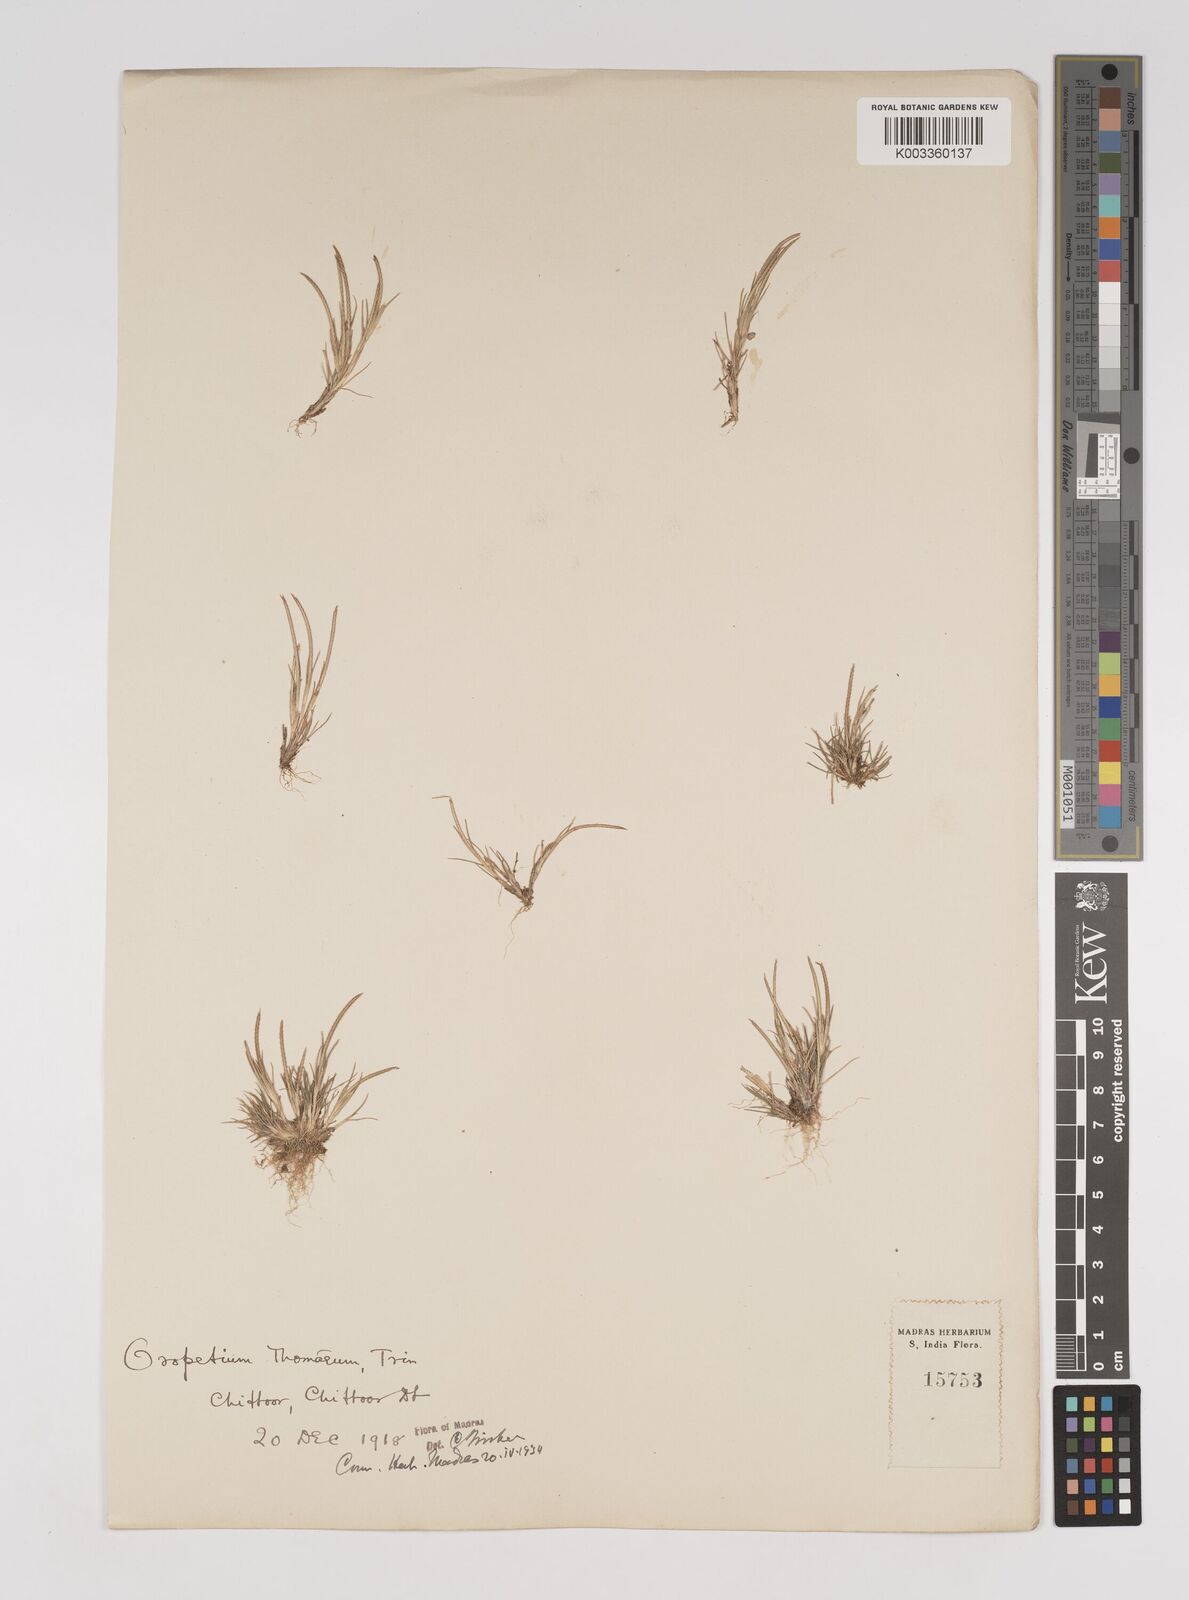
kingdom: Plantae
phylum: Tracheophyta
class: Liliopsida
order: Poales
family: Poaceae
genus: Oropetium
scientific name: Oropetium thomaeum
